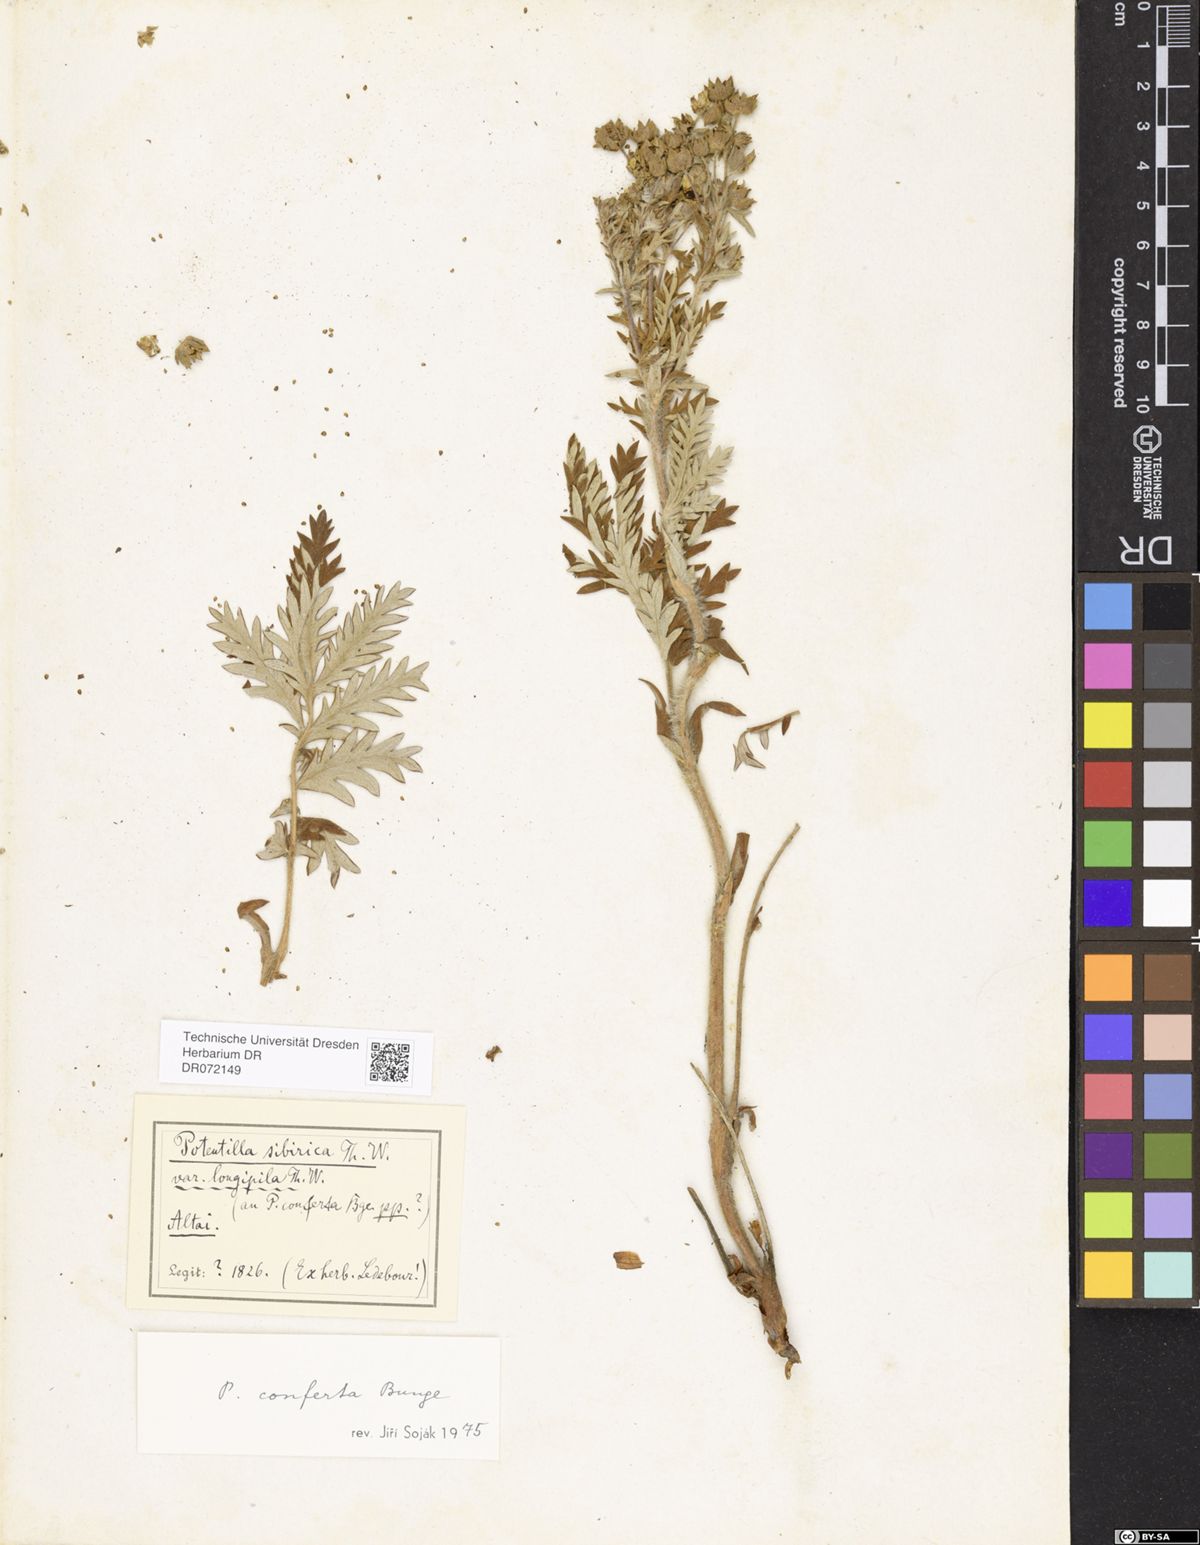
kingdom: Plantae
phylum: Tracheophyta
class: Magnoliopsida
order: Rosales
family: Rosaceae
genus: Potentilla
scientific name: Potentilla conferta
